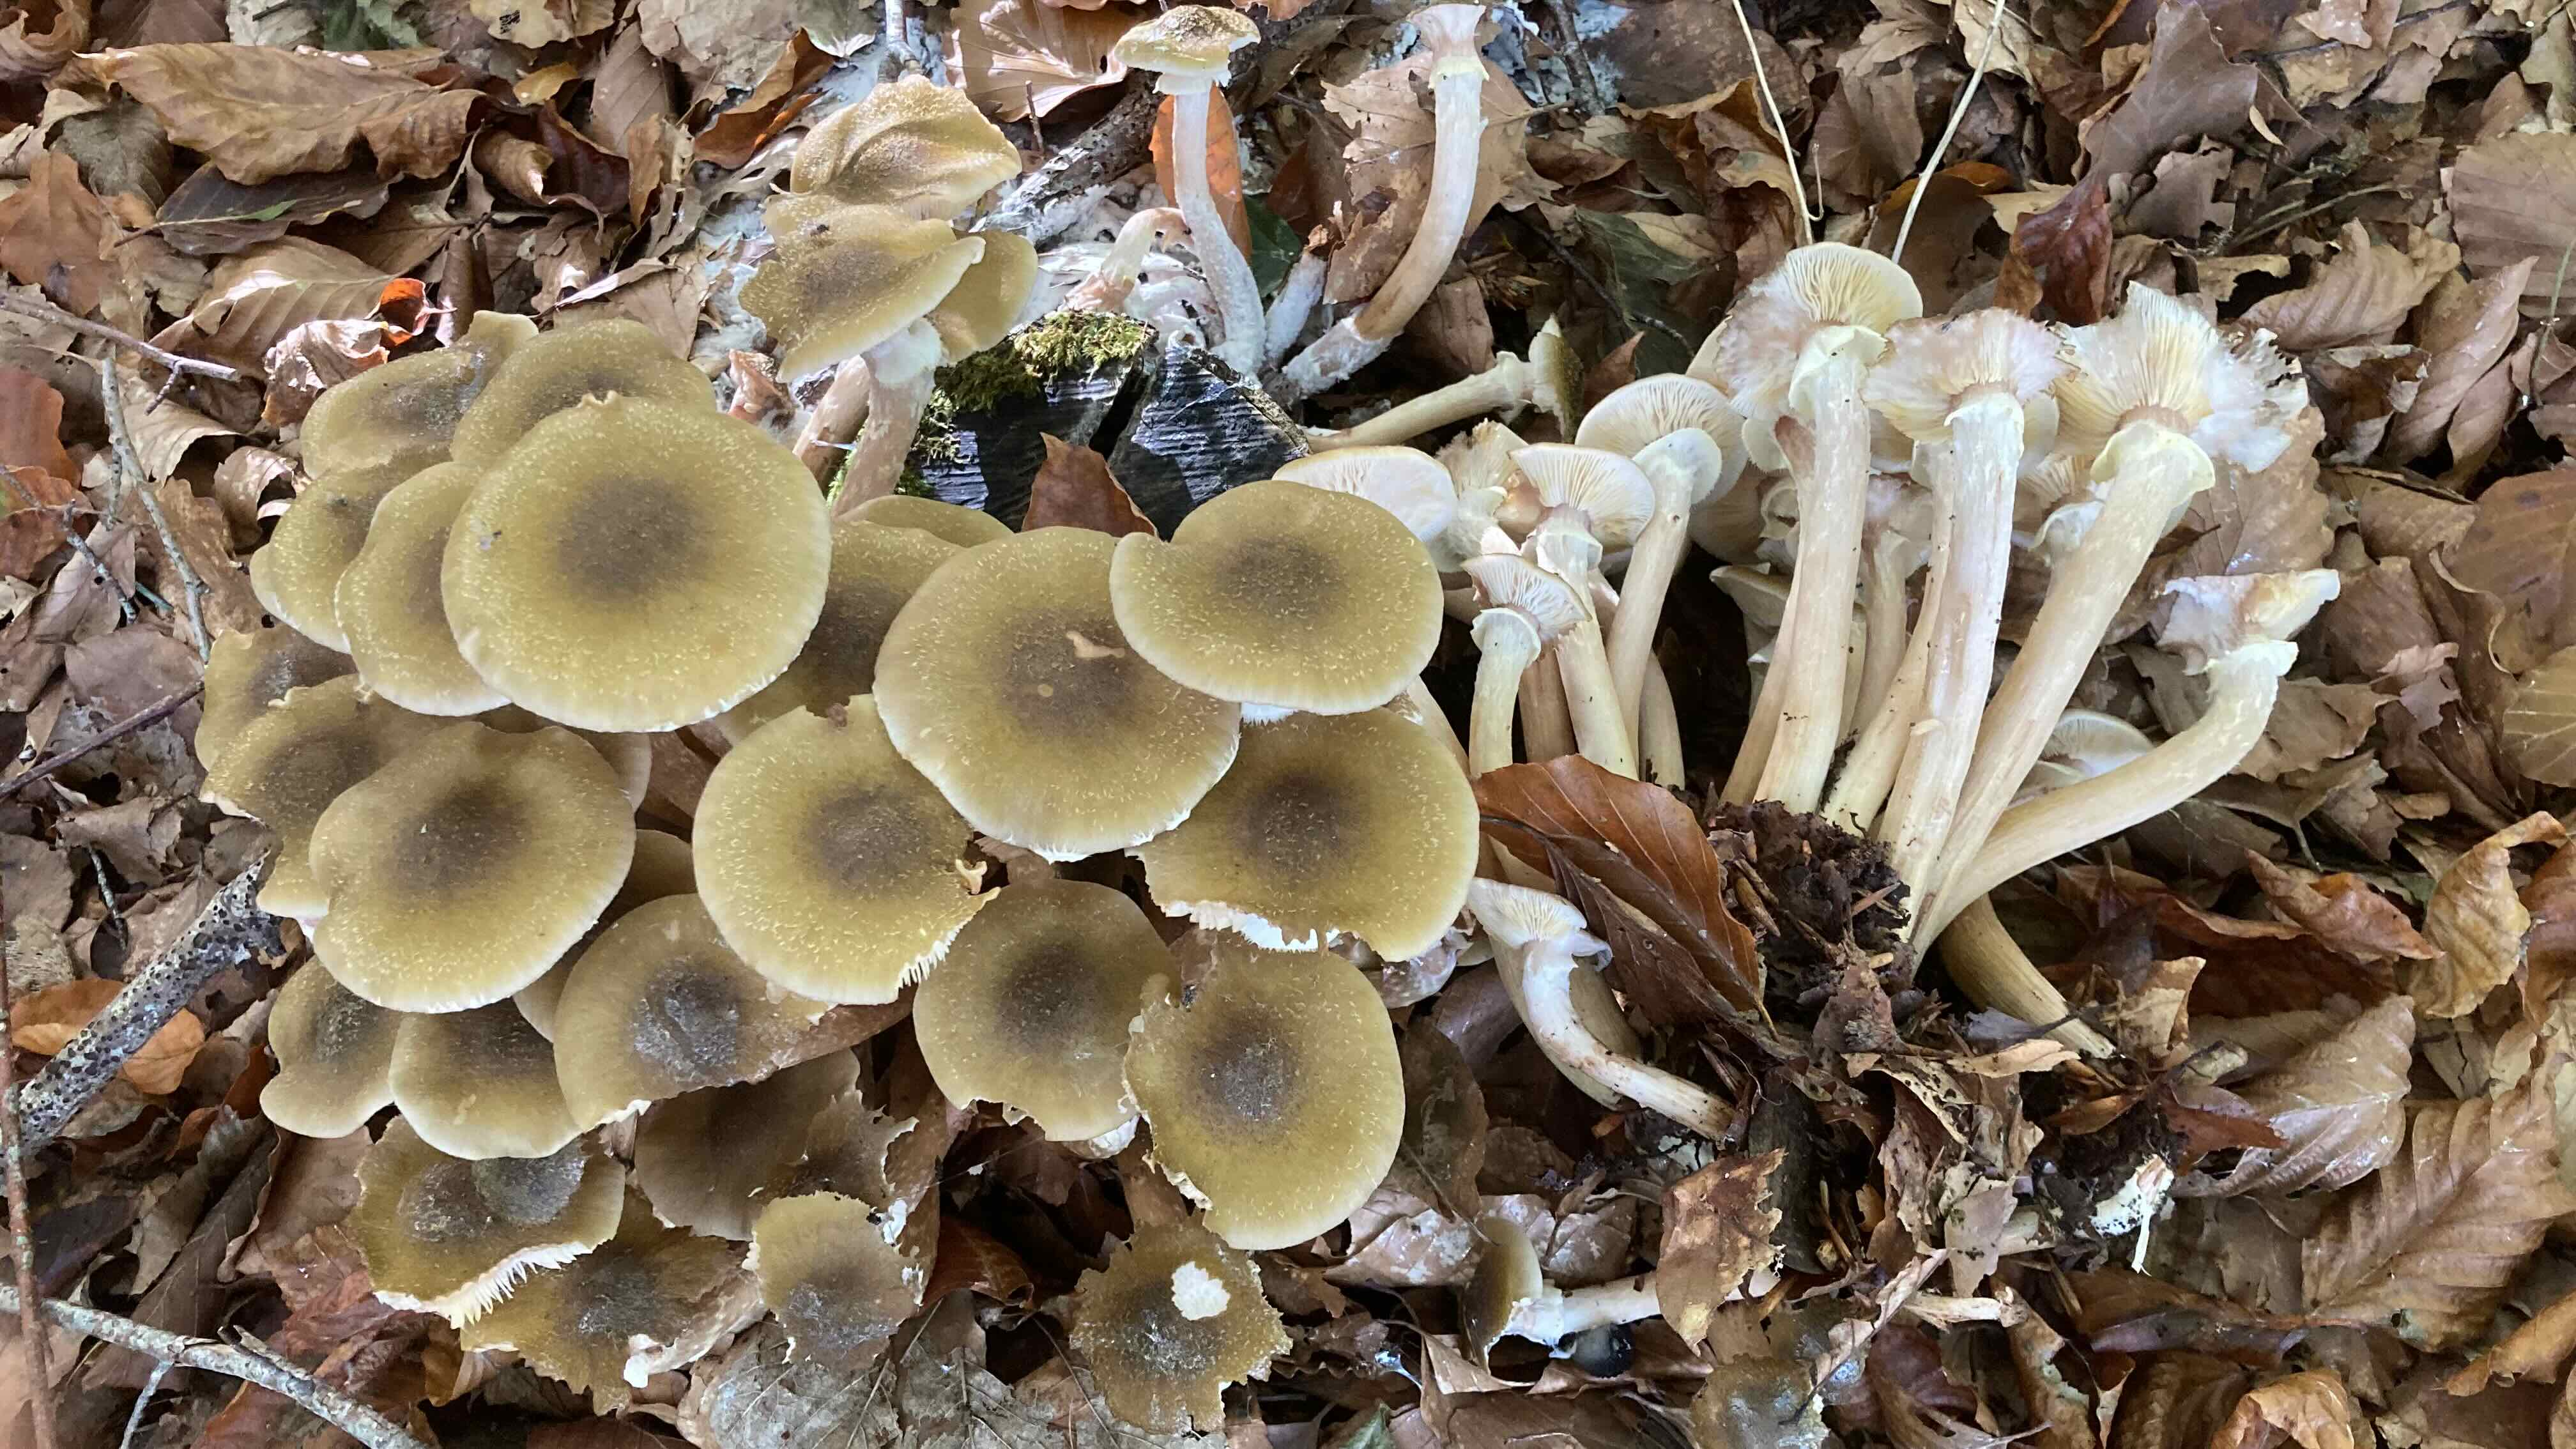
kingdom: Fungi
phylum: Basidiomycota
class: Agaricomycetes
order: Agaricales
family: Physalacriaceae
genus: Armillaria
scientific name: Armillaria mellea
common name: ægte honningsvamp
